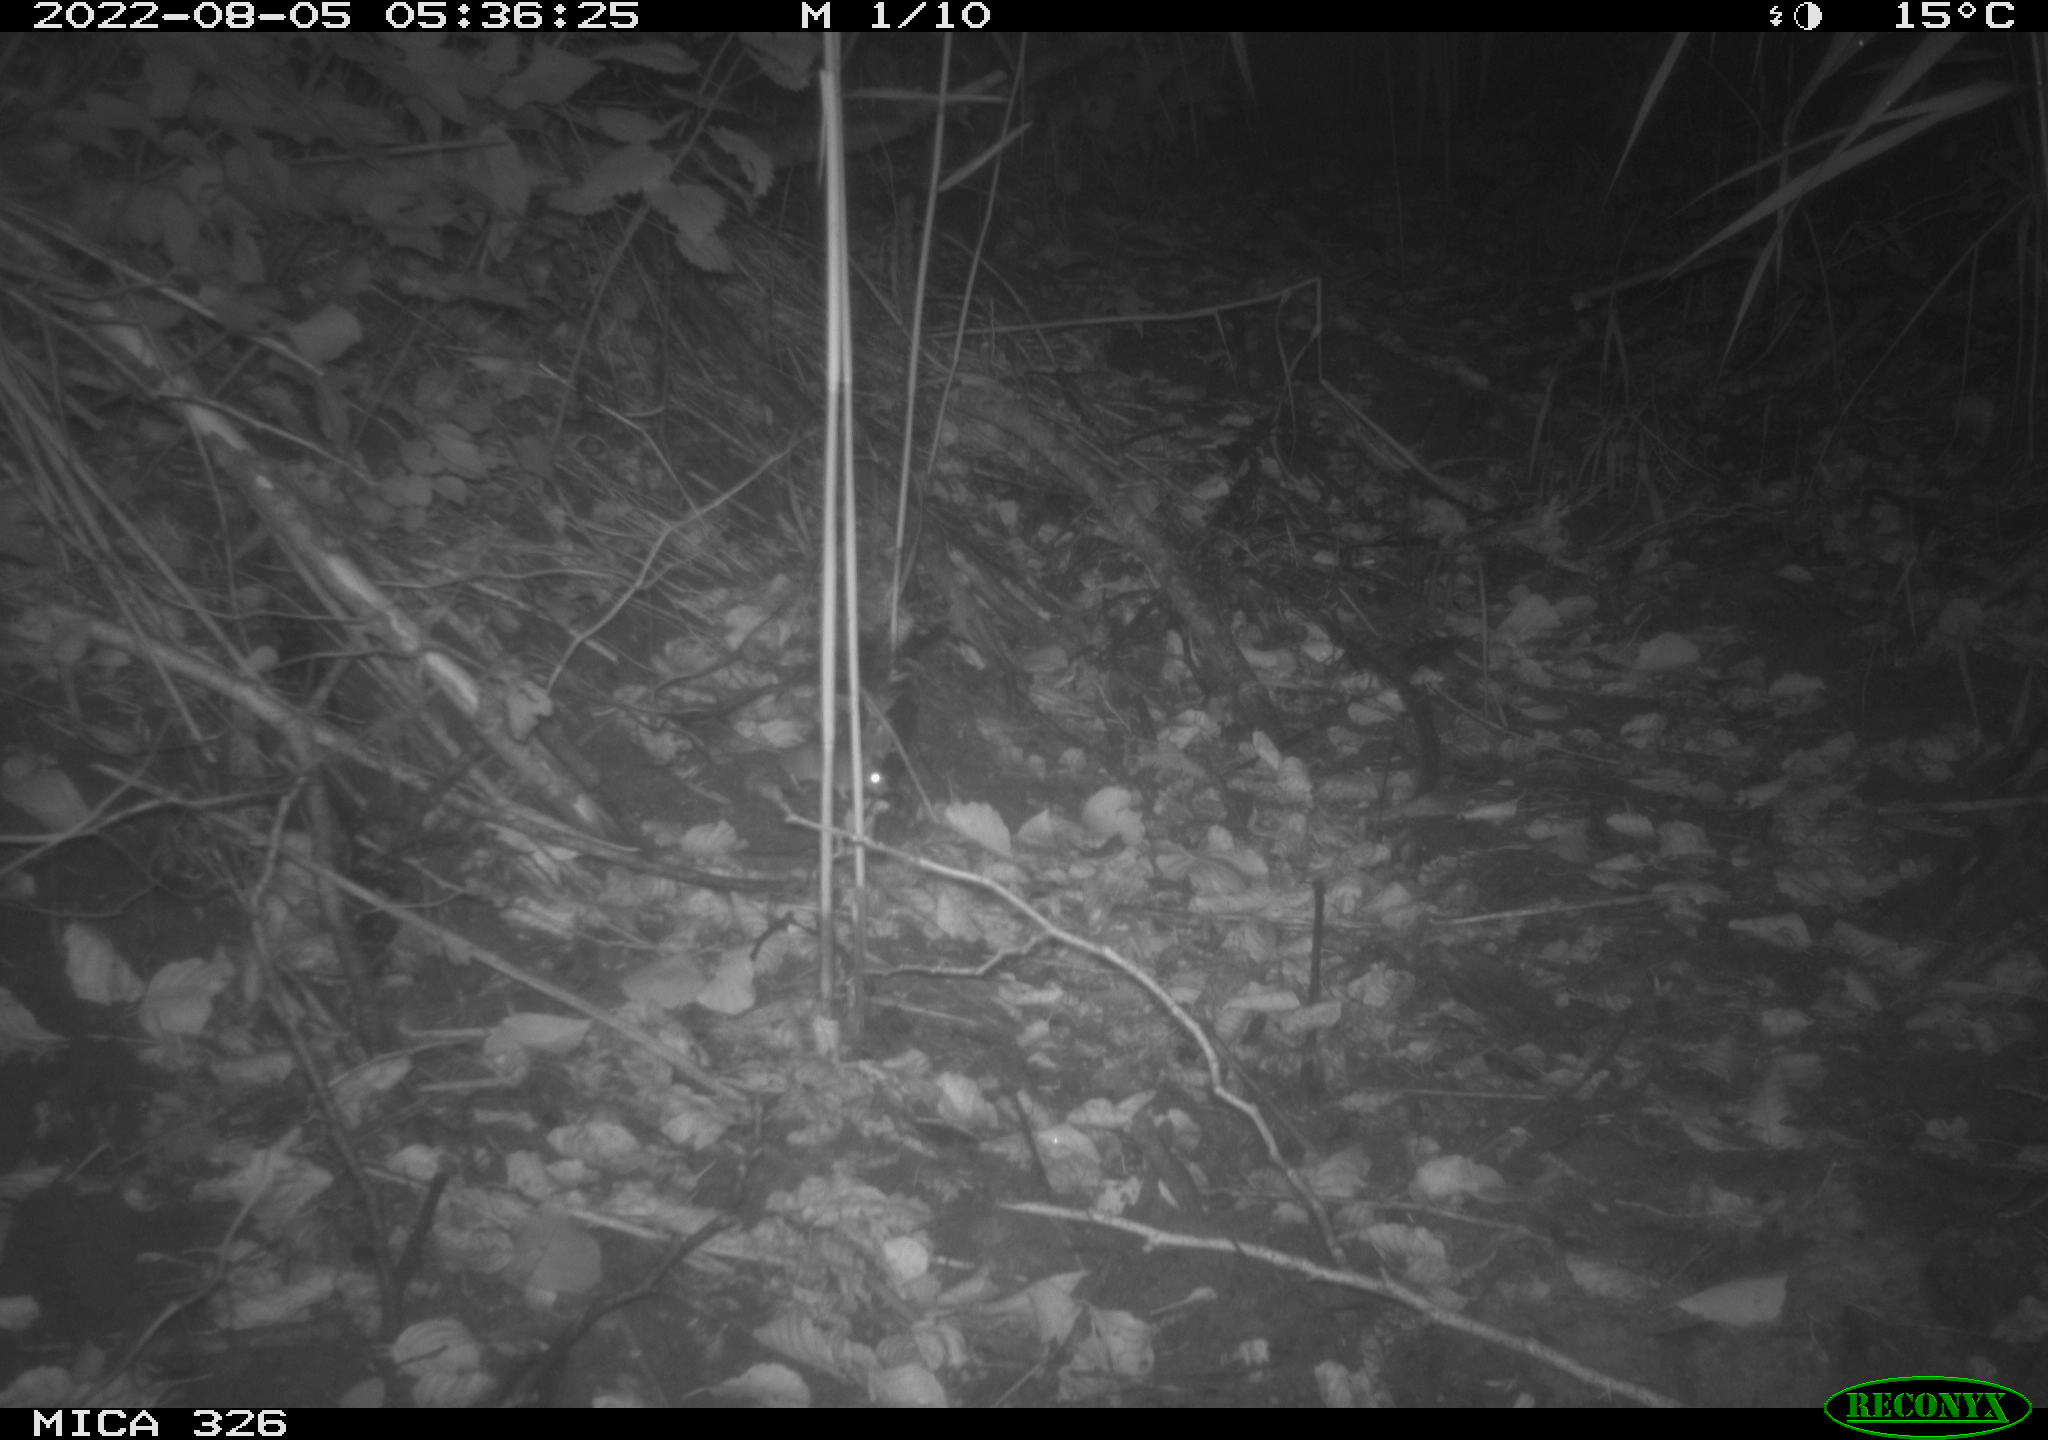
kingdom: Animalia
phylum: Chordata
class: Mammalia
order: Rodentia
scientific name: Rodentia
